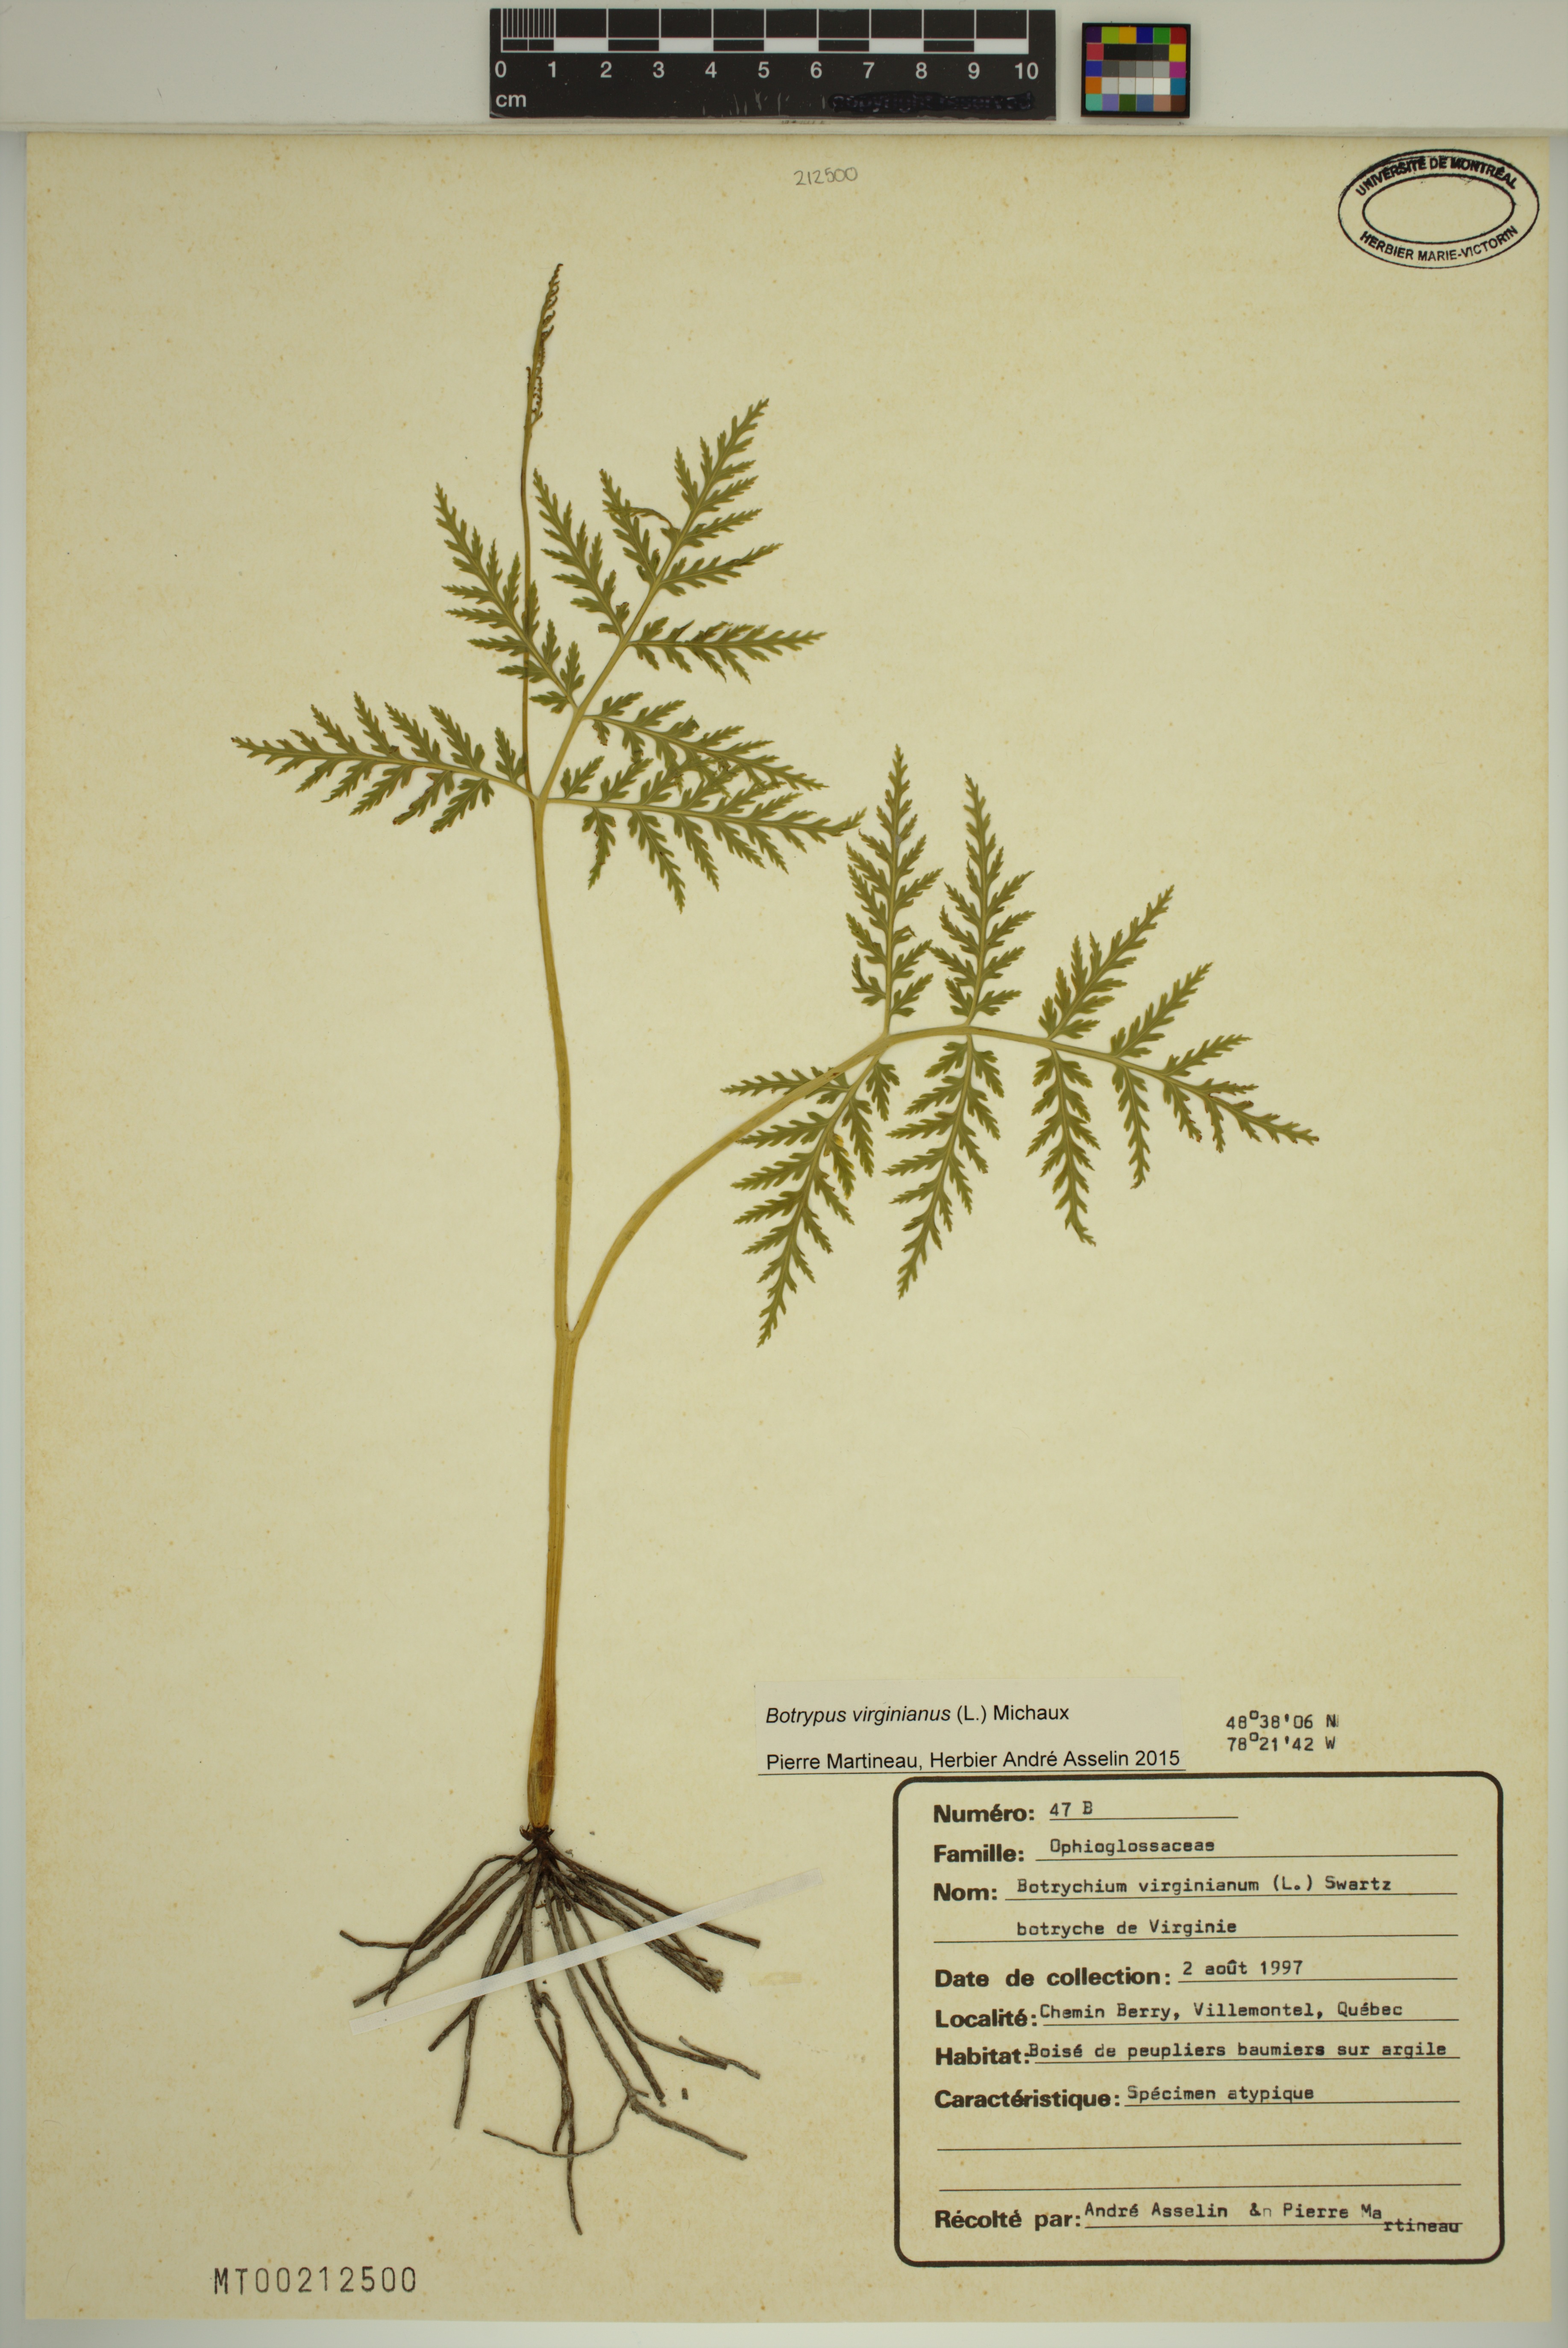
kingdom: Plantae
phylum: Tracheophyta
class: Polypodiopsida
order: Ophioglossales
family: Ophioglossaceae
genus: Botrypus
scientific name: Botrypus virginianus
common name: Common grapefern
